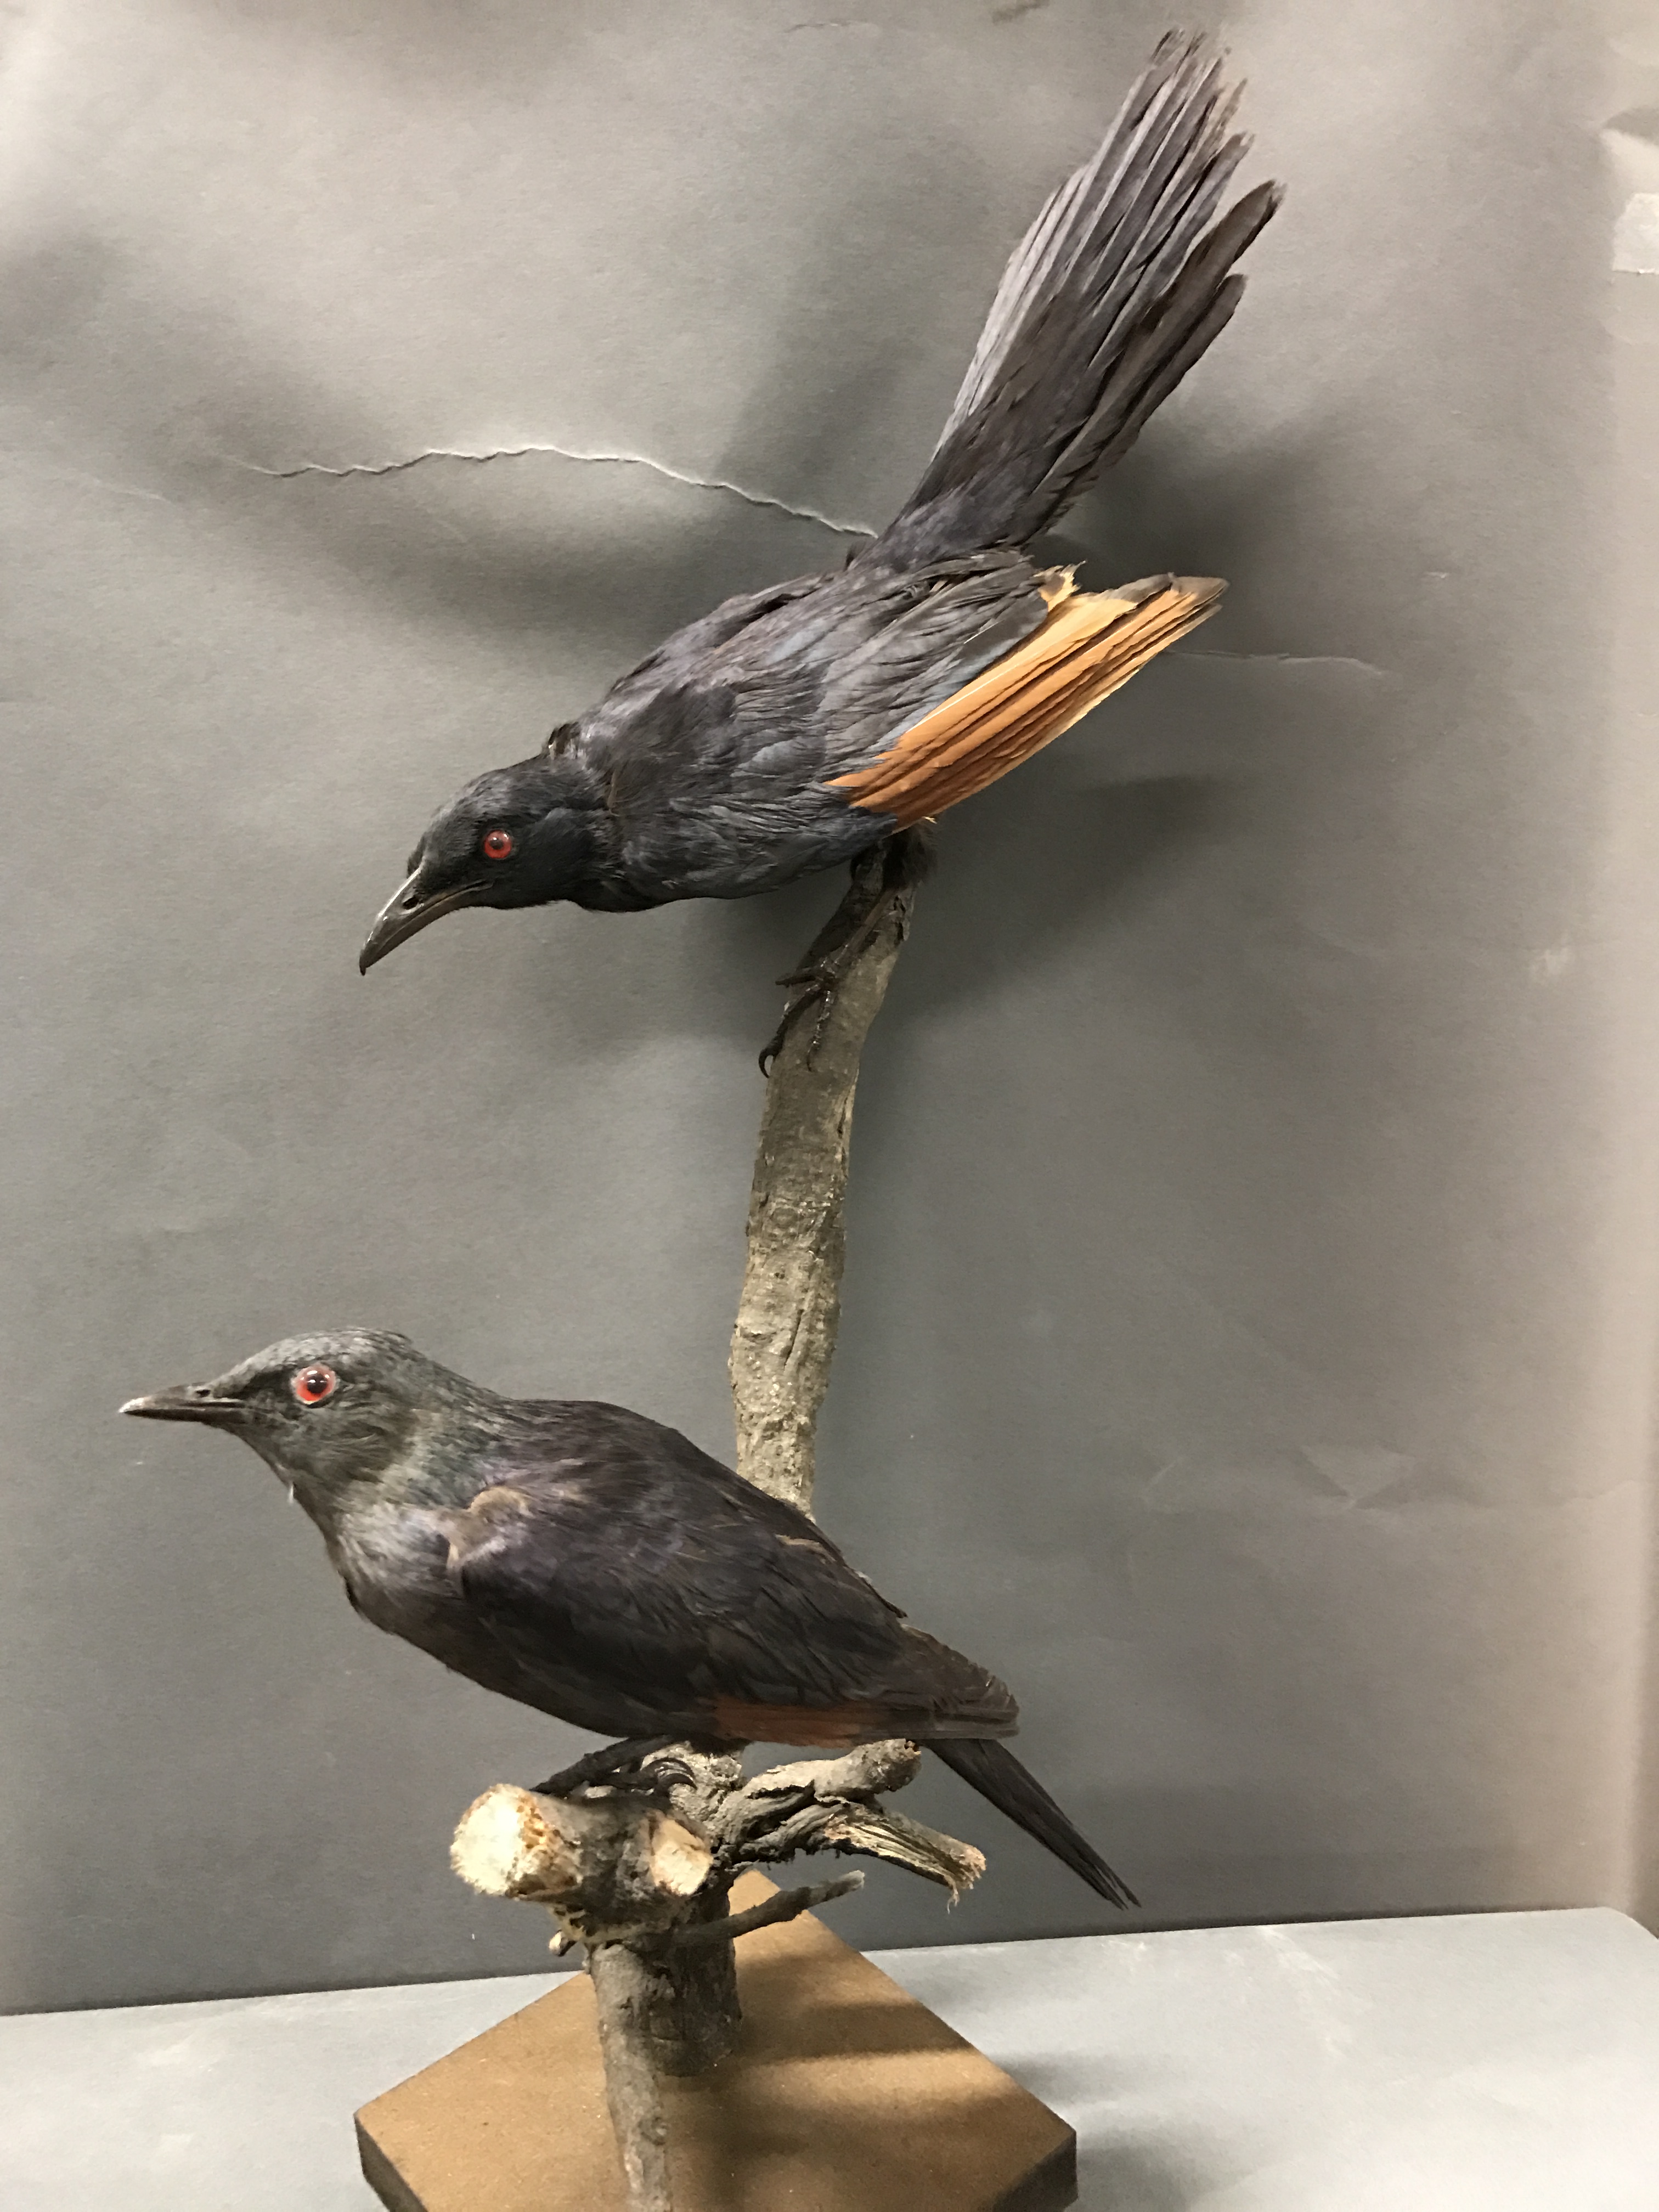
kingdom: Animalia
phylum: Chordata
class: Aves
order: Passeriformes
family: Sturnidae
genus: Onychognathus
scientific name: Onychognathus morio
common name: Red-winged starling
